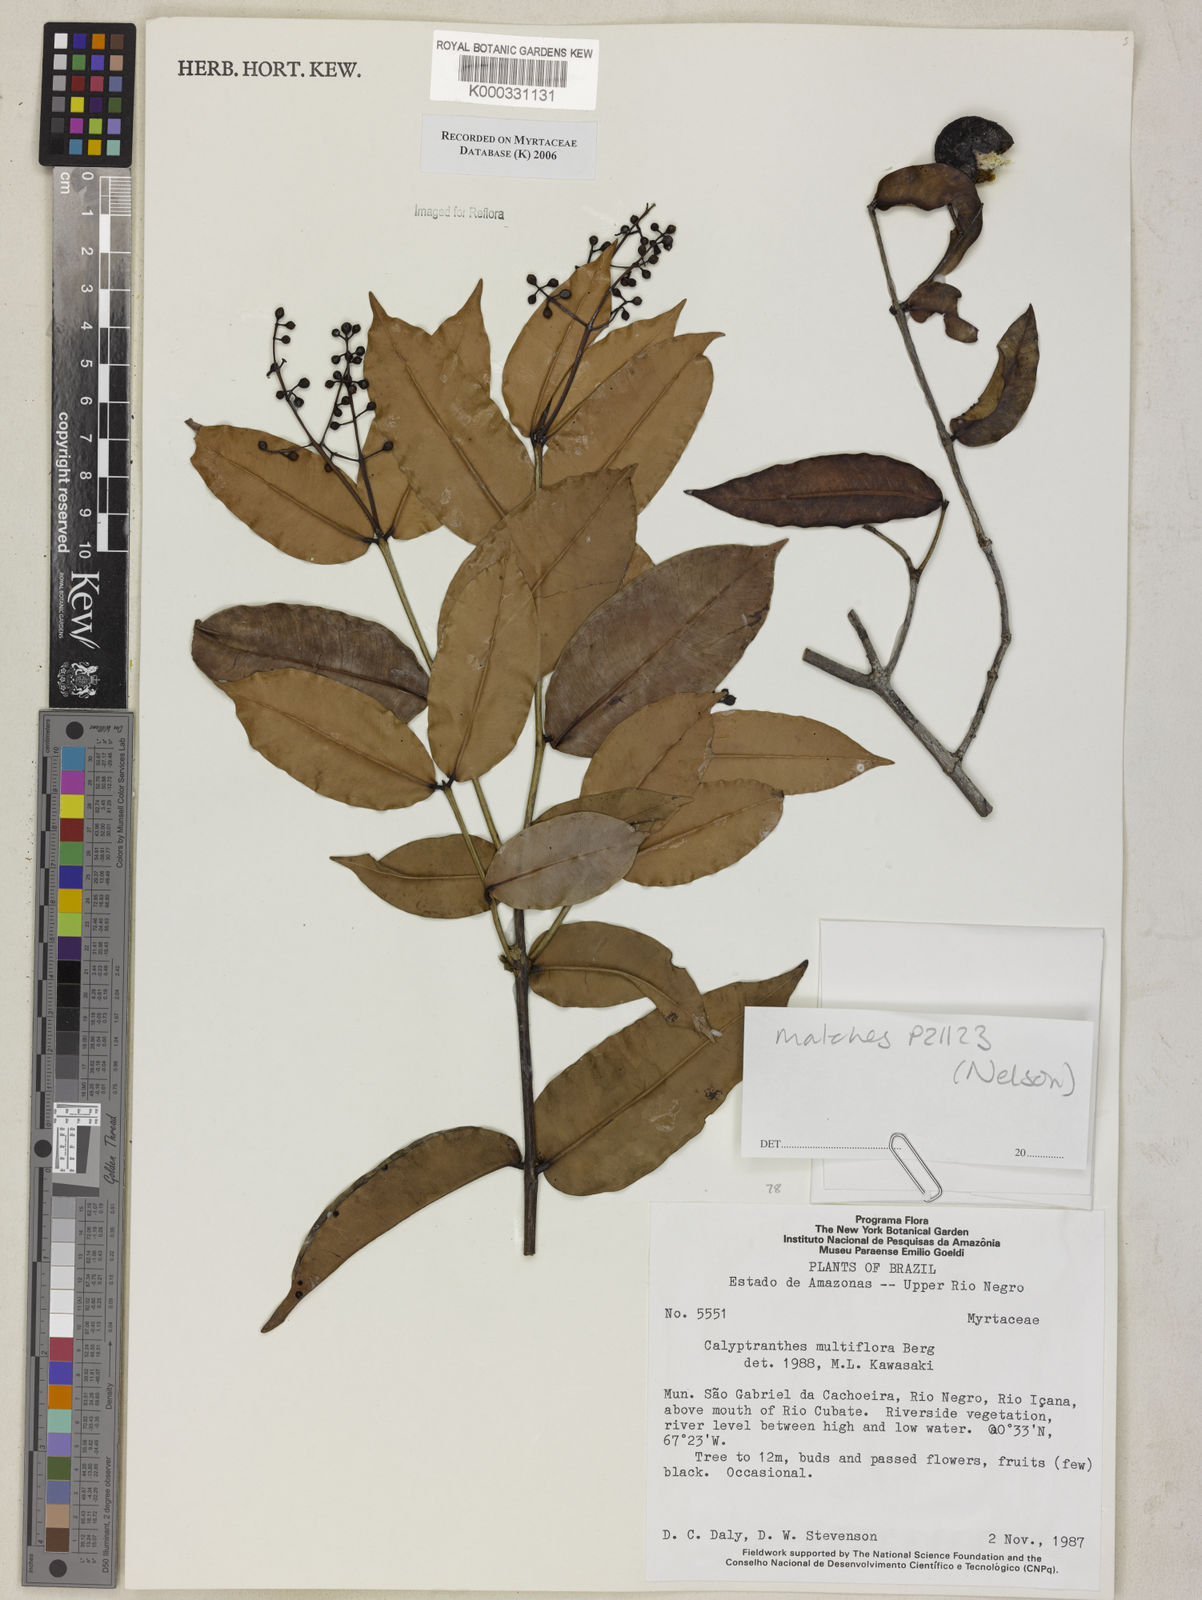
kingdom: Plantae
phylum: Tracheophyta
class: Magnoliopsida
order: Myrtales
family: Myrtaceae
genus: Myrcia
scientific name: Myrcia aulomyrcioides
